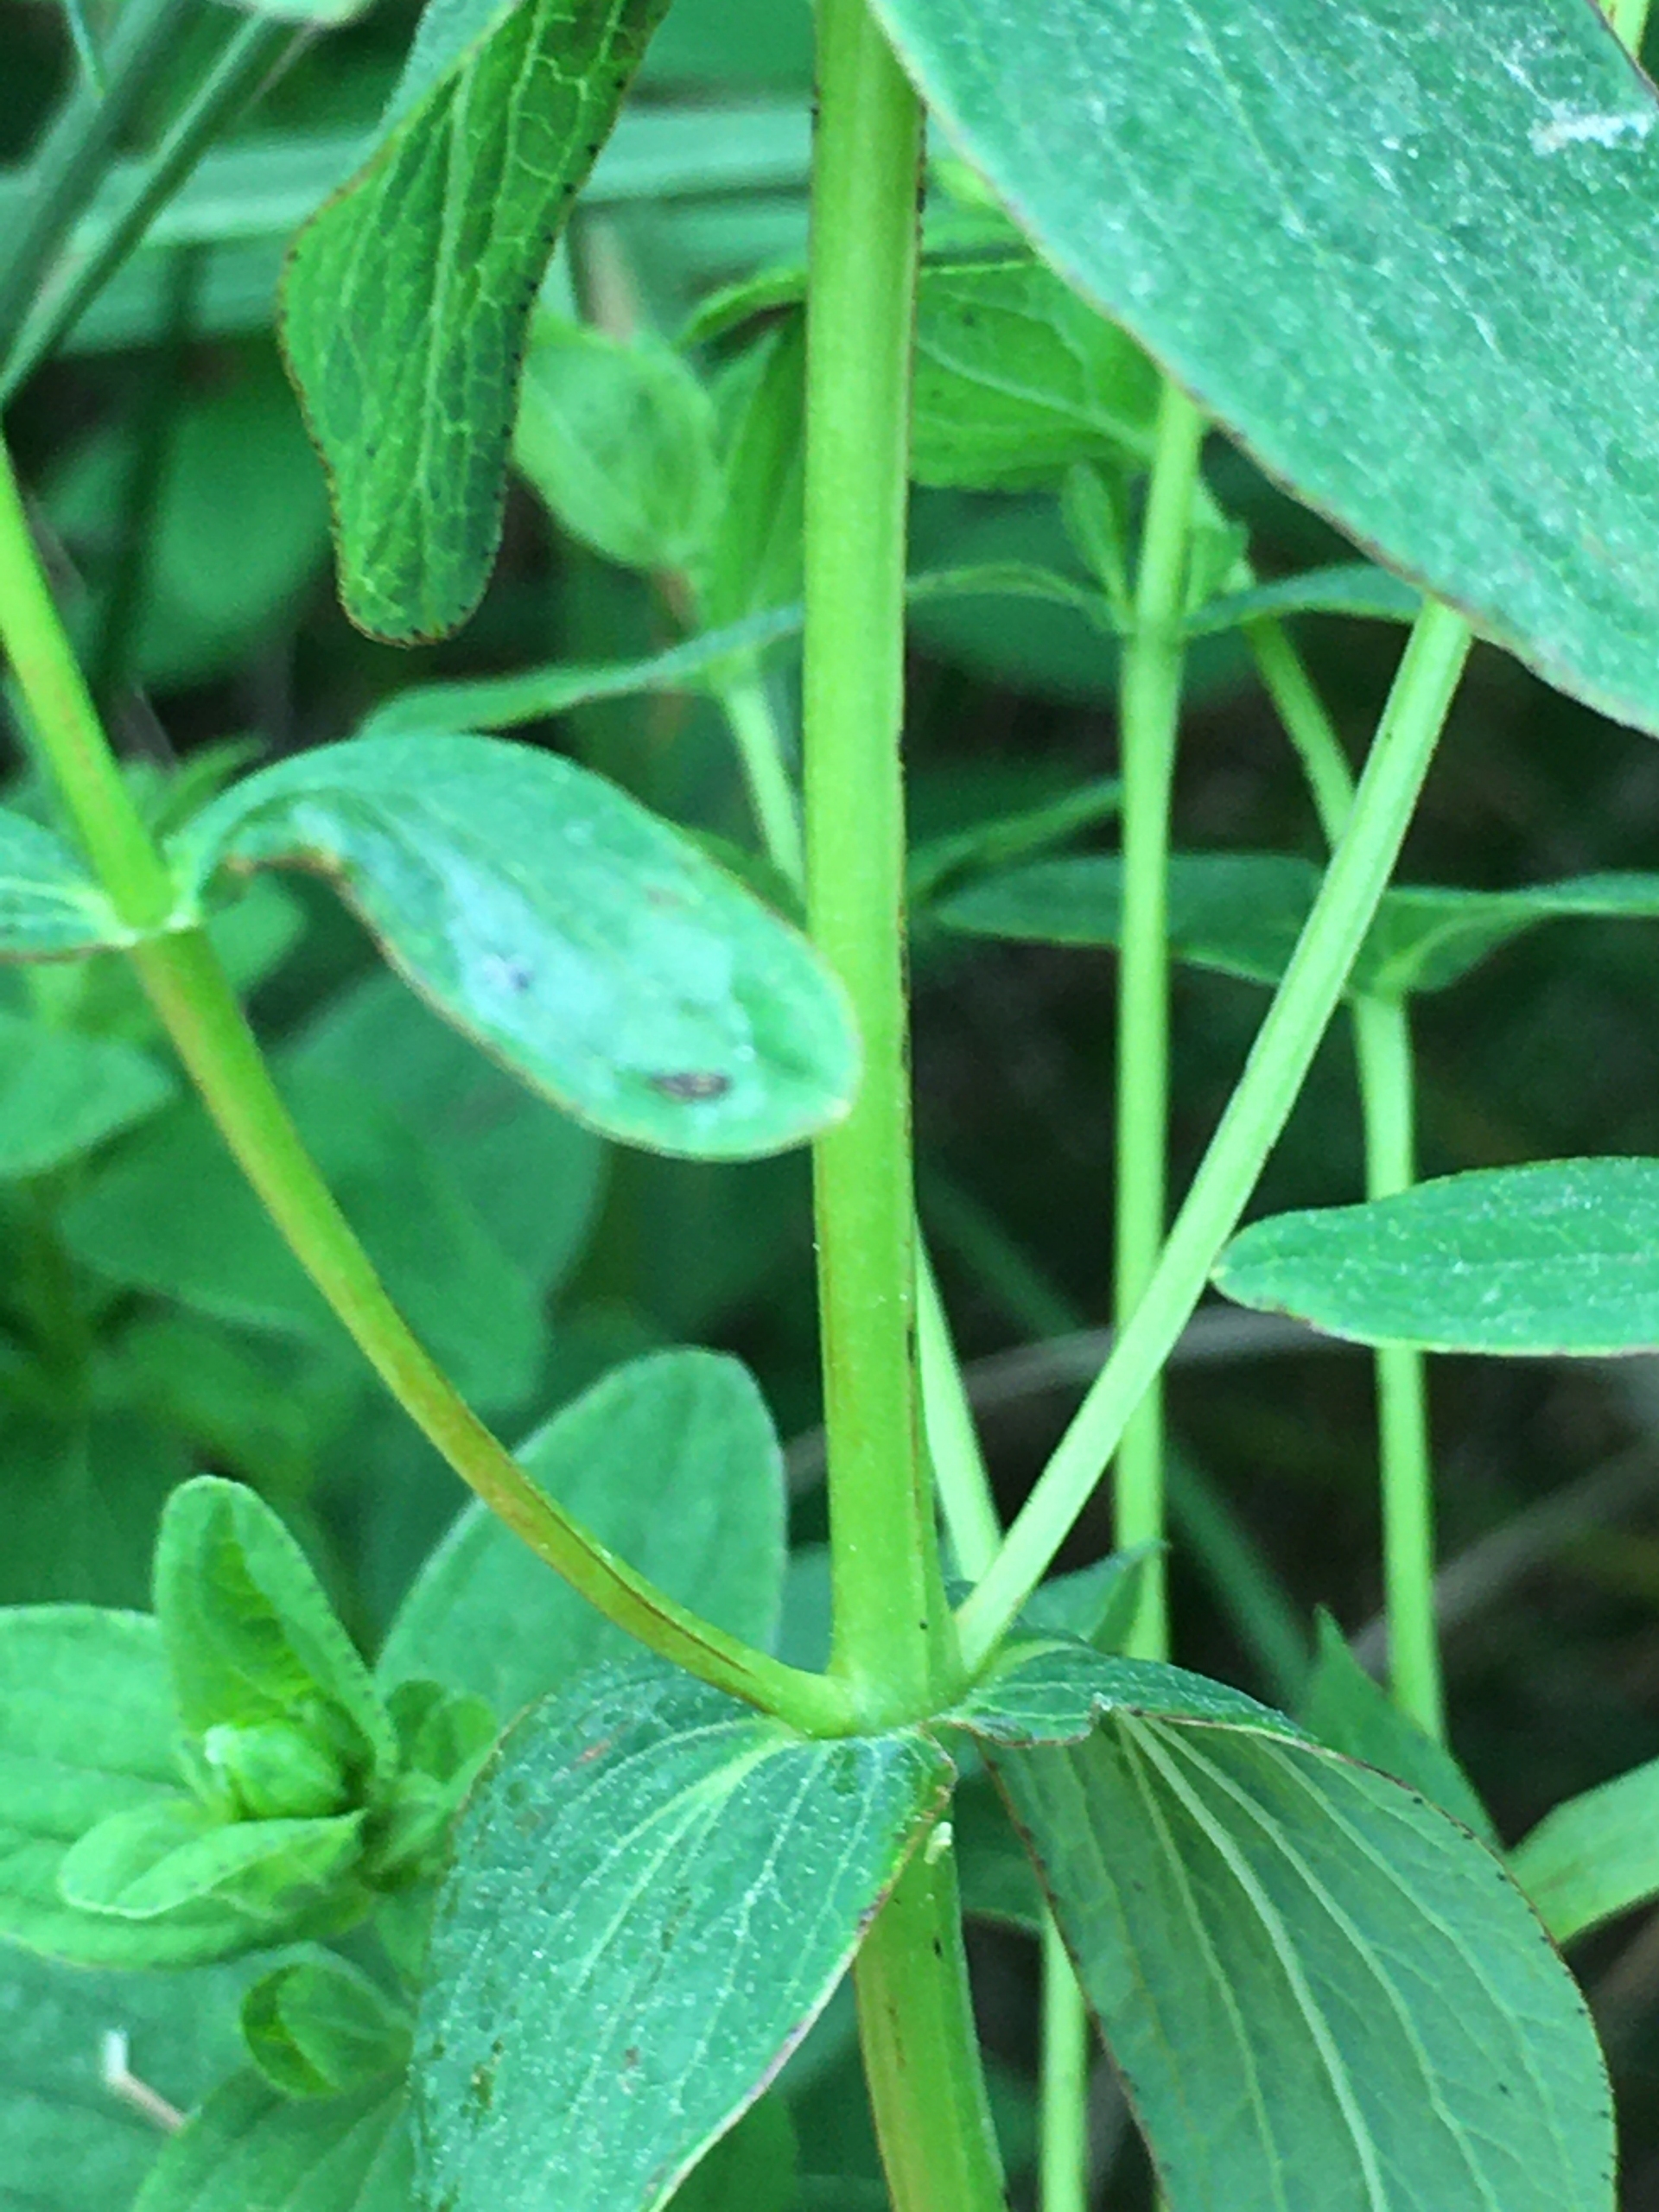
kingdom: Plantae
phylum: Tracheophyta
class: Magnoliopsida
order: Malpighiales
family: Hypericaceae
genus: Hypericum
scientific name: Hypericum maculatum
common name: Kantet perikon
